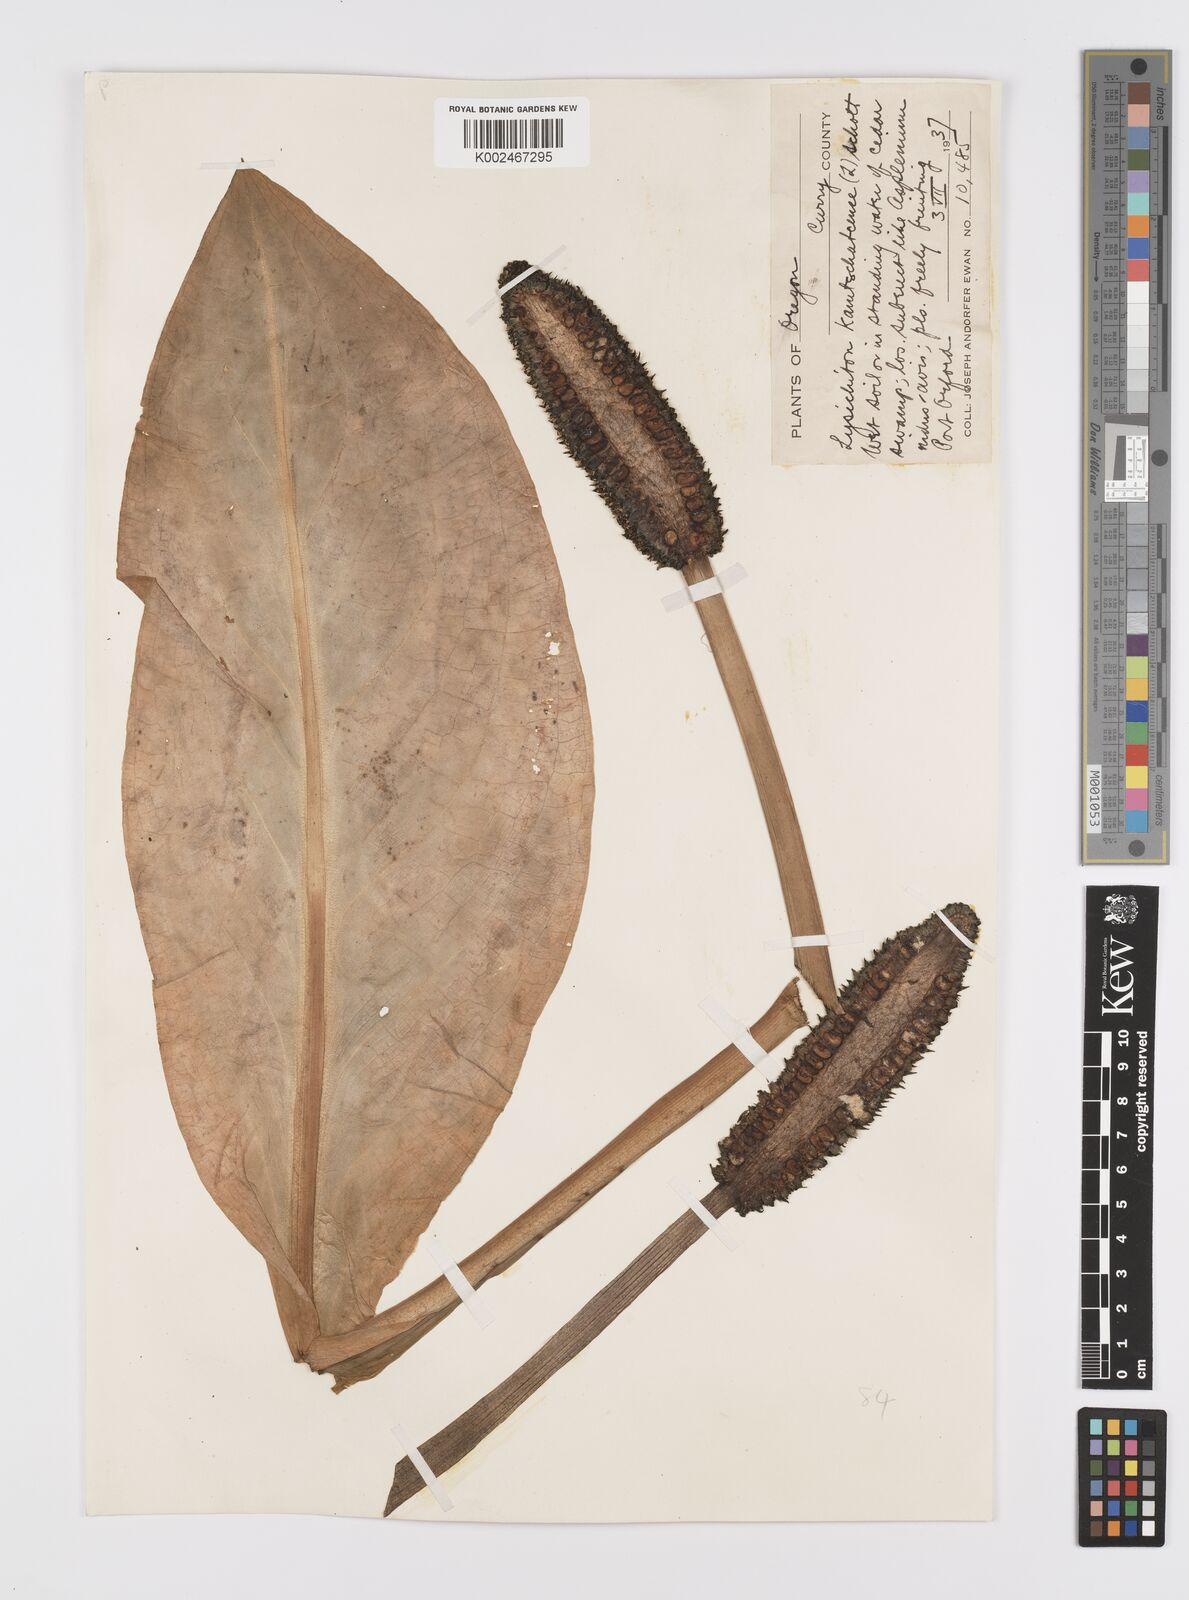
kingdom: Plantae
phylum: Tracheophyta
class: Liliopsida
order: Alismatales
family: Araceae
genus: Lysichiton
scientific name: Lysichiton americanus
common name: American skunk cabbage
